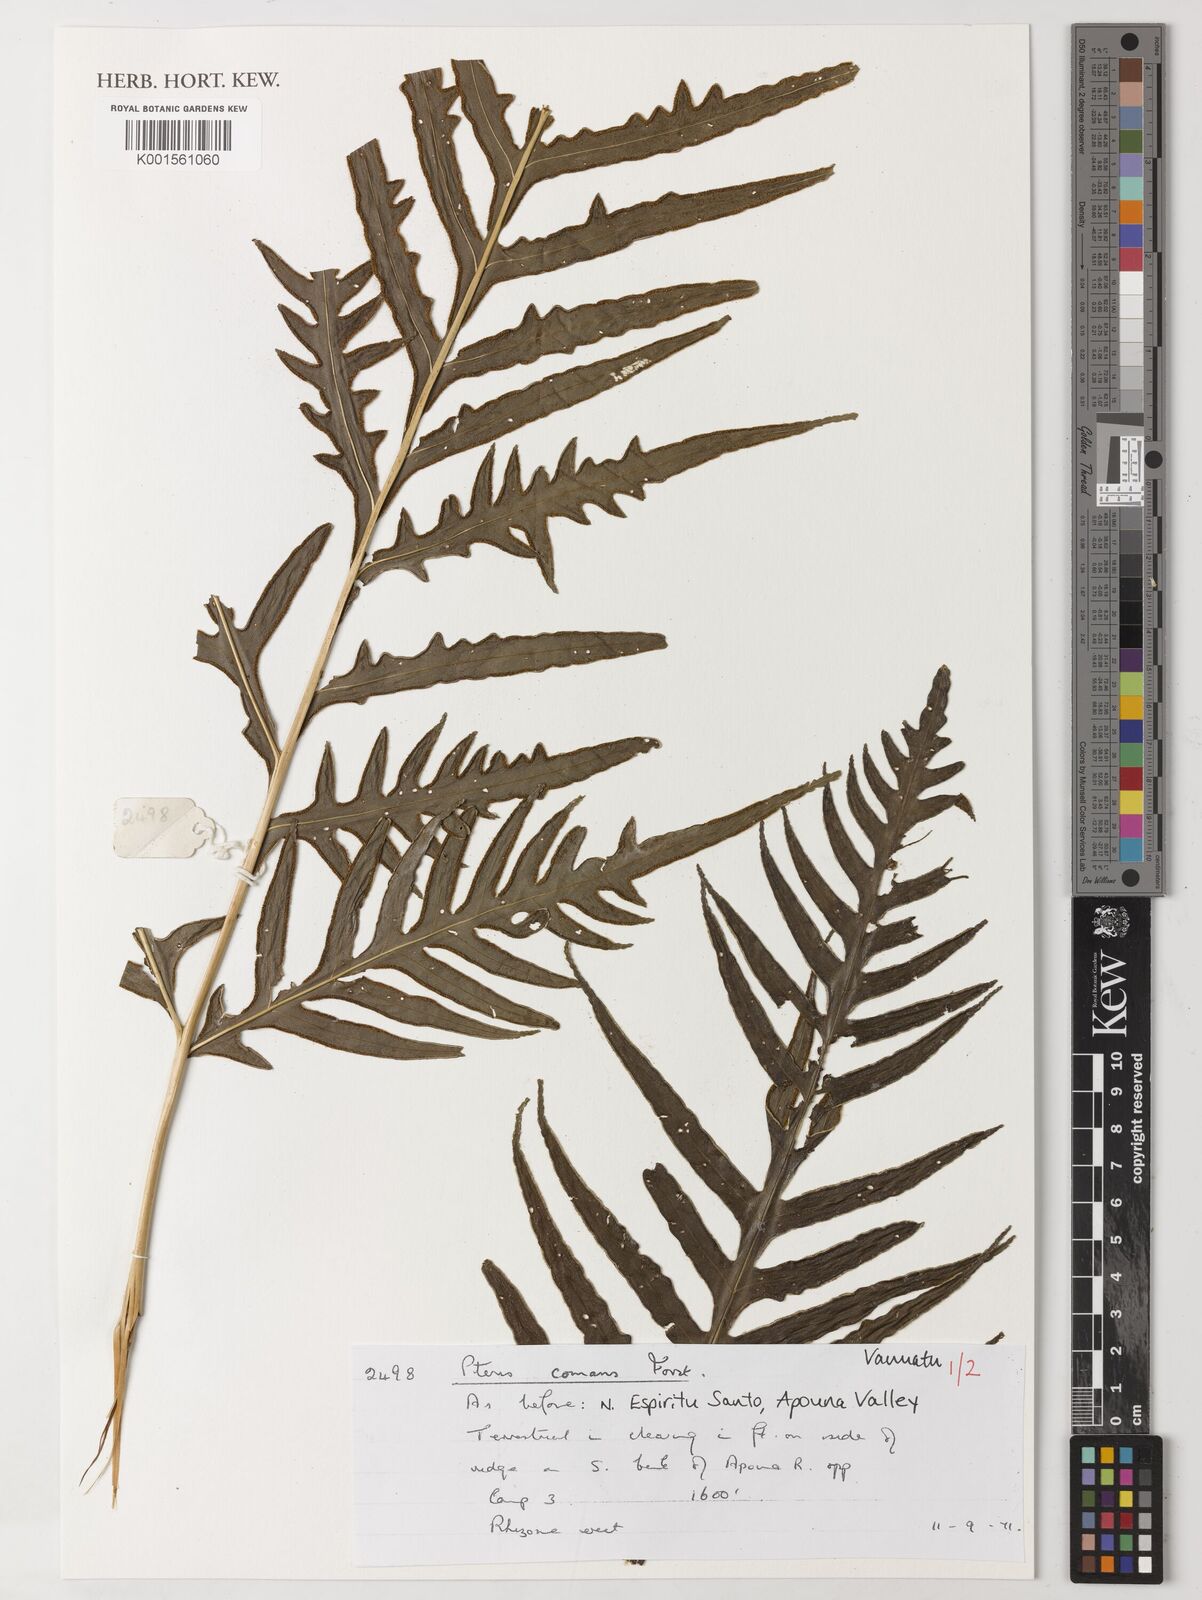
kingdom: Plantae
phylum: Tracheophyta
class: Polypodiopsida
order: Polypodiales
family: Pteridaceae
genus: Pteris
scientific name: Pteris comans
